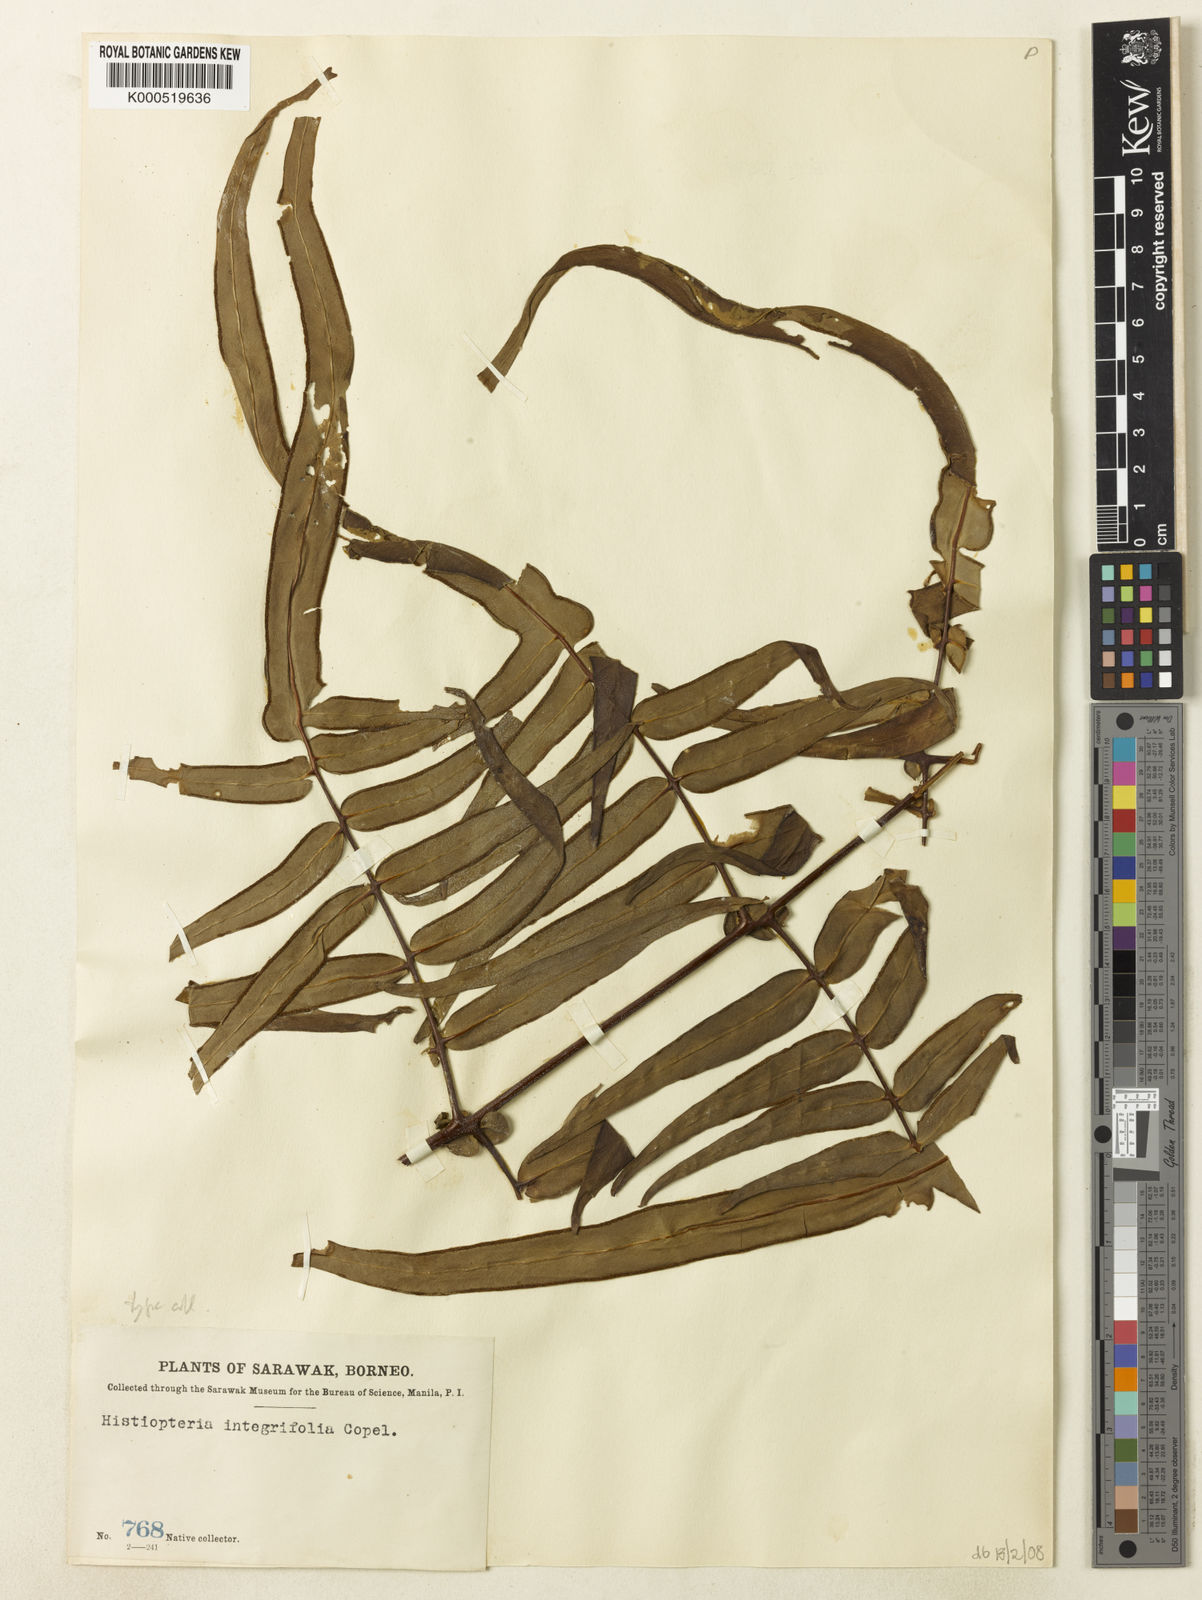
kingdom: Plantae
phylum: Tracheophyta
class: Polypodiopsida
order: Polypodiales
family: Dennstaedtiaceae
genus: Histiopteris
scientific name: Histiopteris stipulacea
